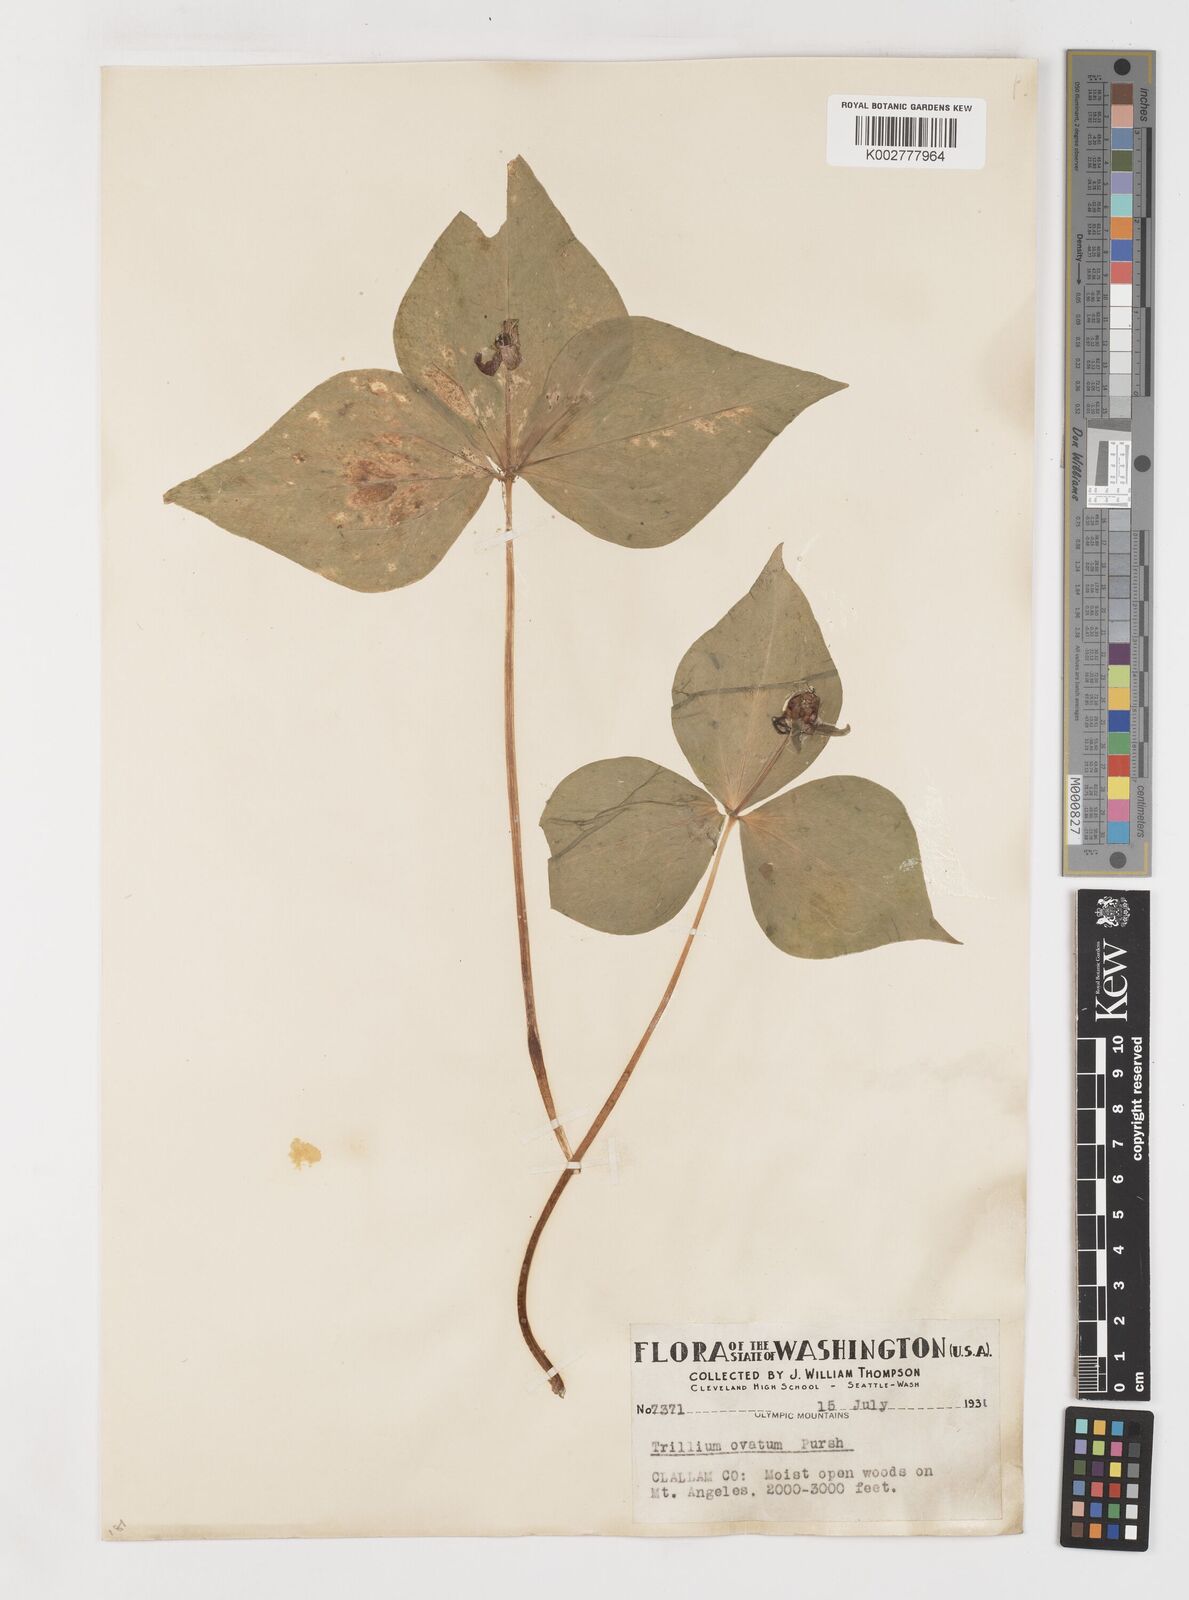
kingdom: Plantae
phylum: Tracheophyta
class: Liliopsida
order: Liliales
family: Melanthiaceae
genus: Trillium
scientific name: Trillium ovatum
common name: Pacific trillium
